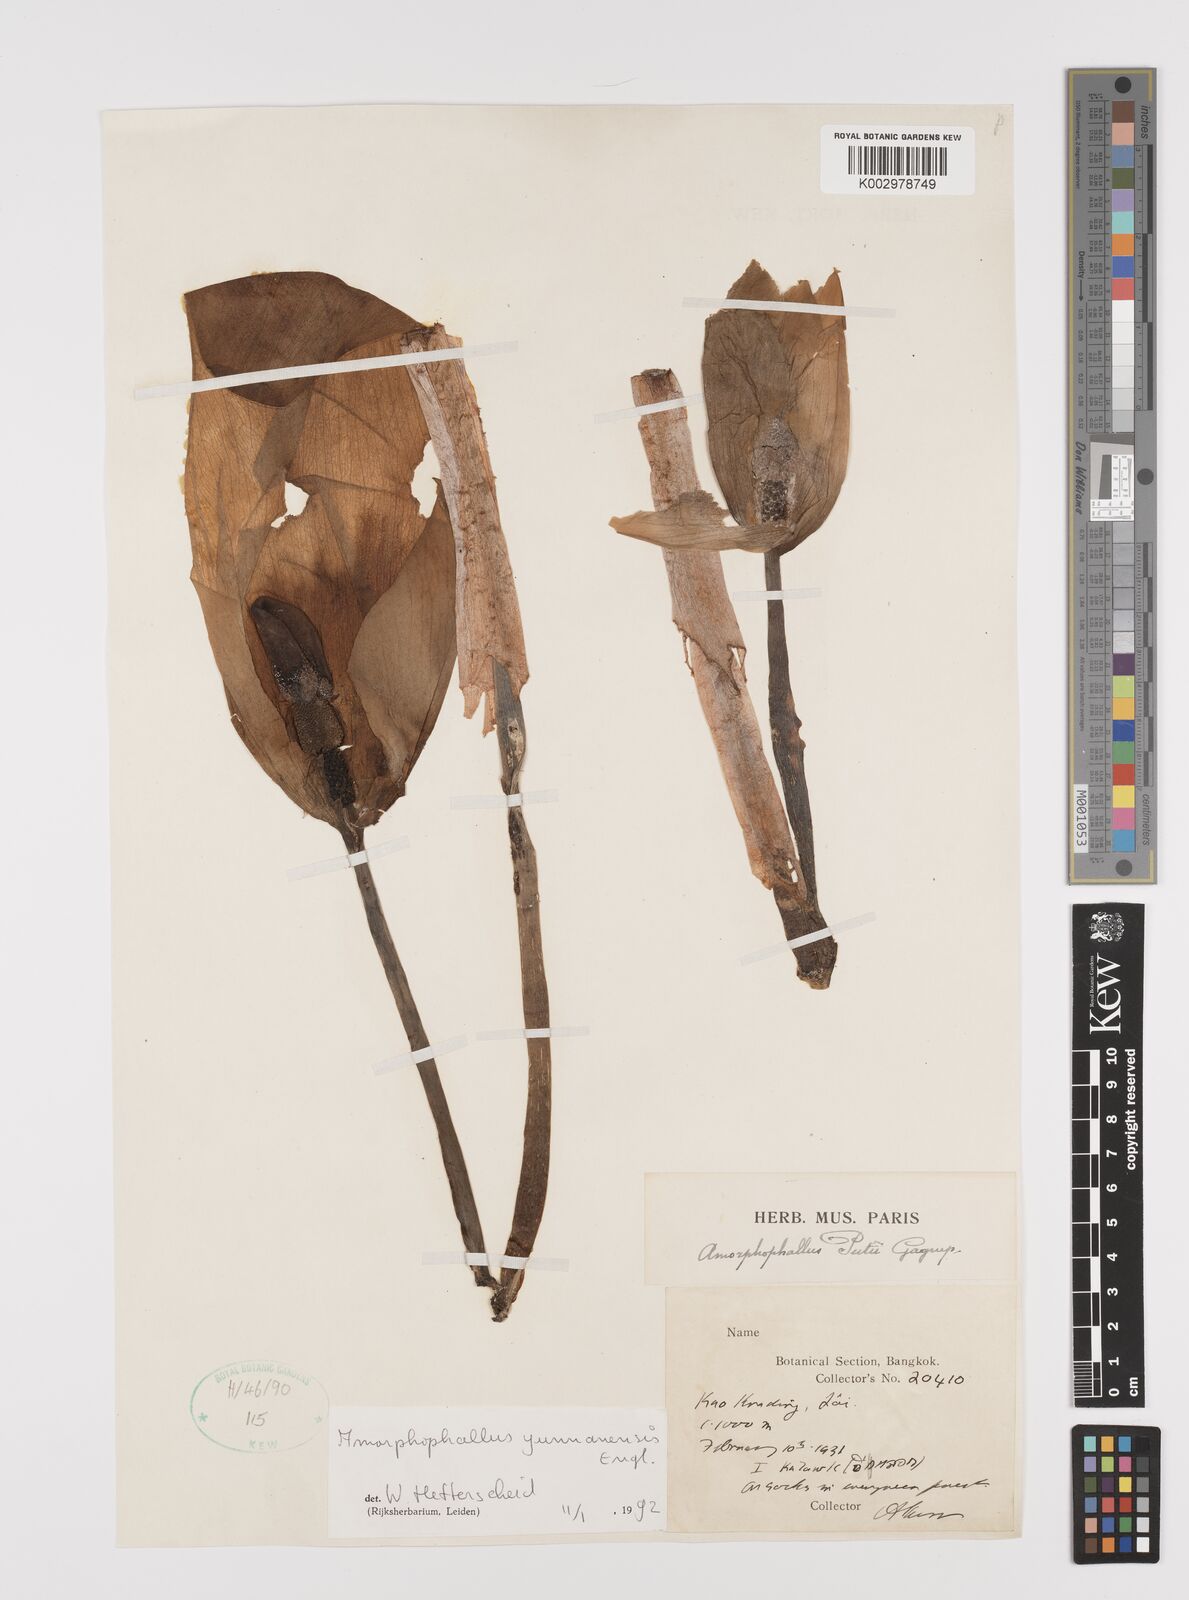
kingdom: Plantae
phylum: Tracheophyta
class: Liliopsida
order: Alismatales
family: Araceae
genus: Amorphophallus
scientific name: Amorphophallus yunnanensis
